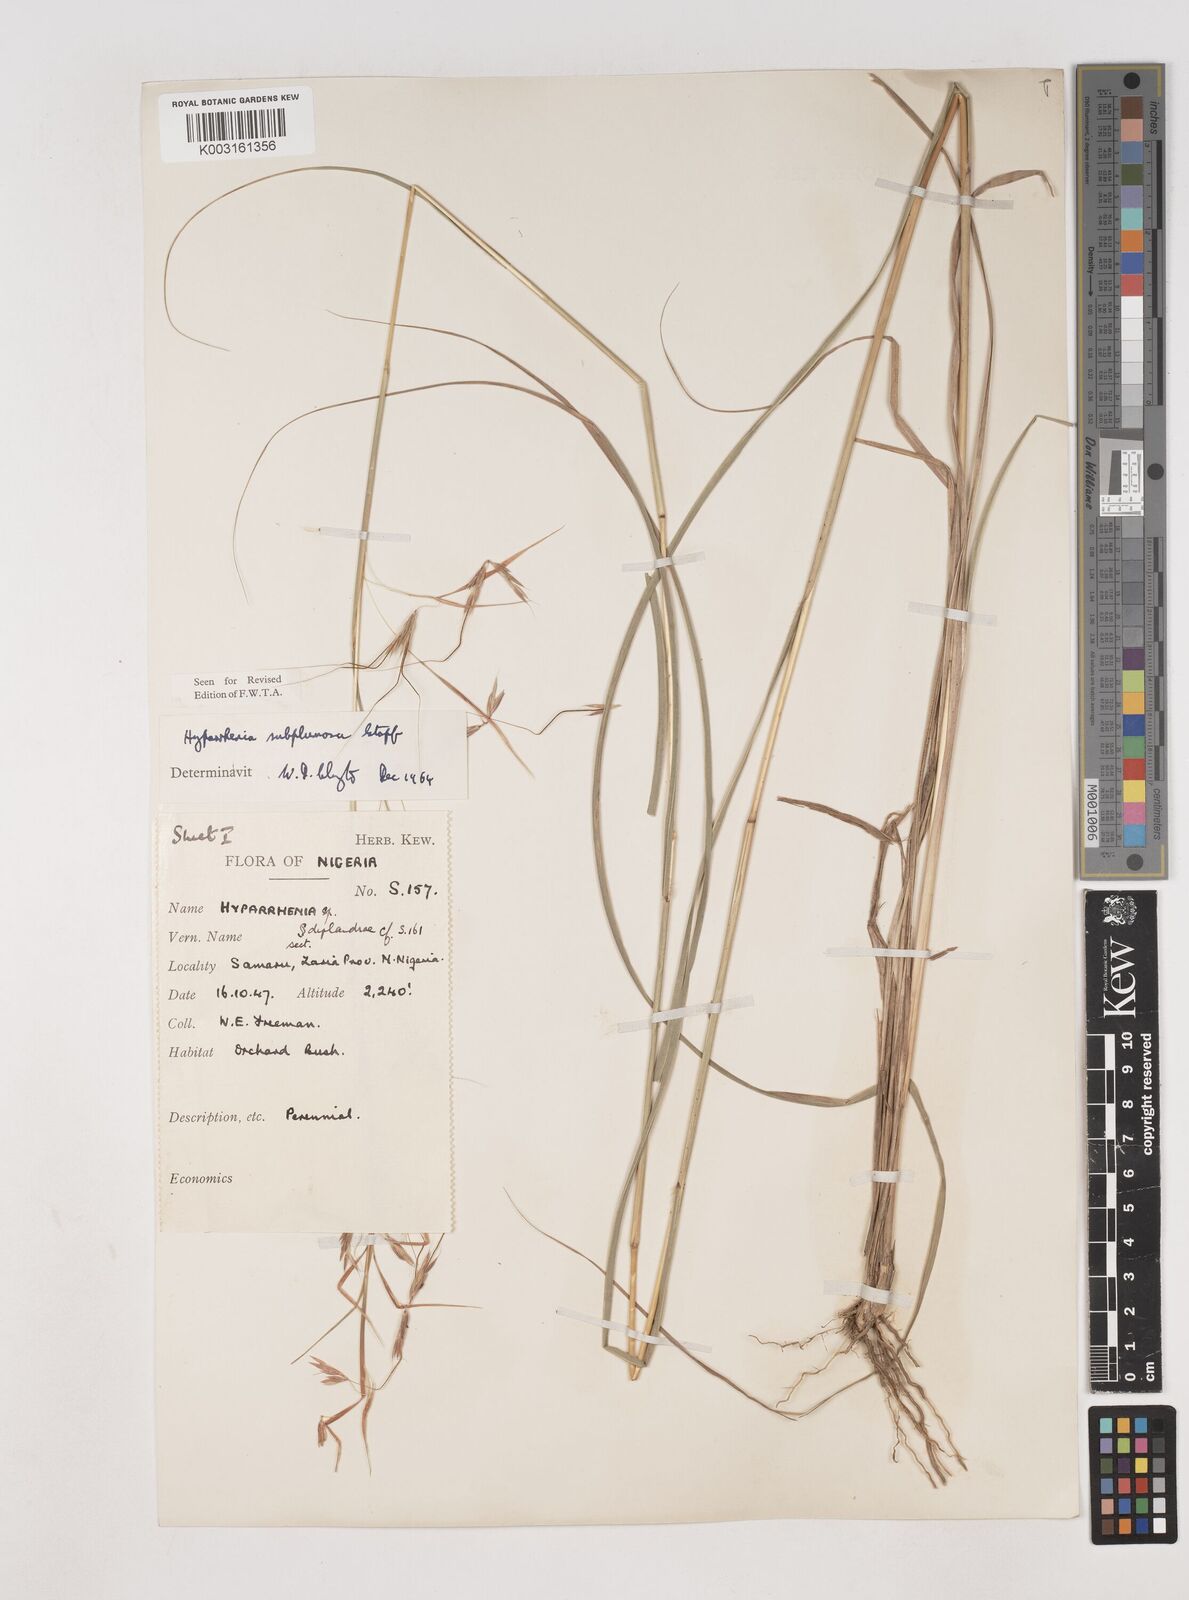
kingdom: Plantae
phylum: Tracheophyta
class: Liliopsida
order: Poales
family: Poaceae
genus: Hyparrhenia
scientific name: Hyparrhenia subplumosa
